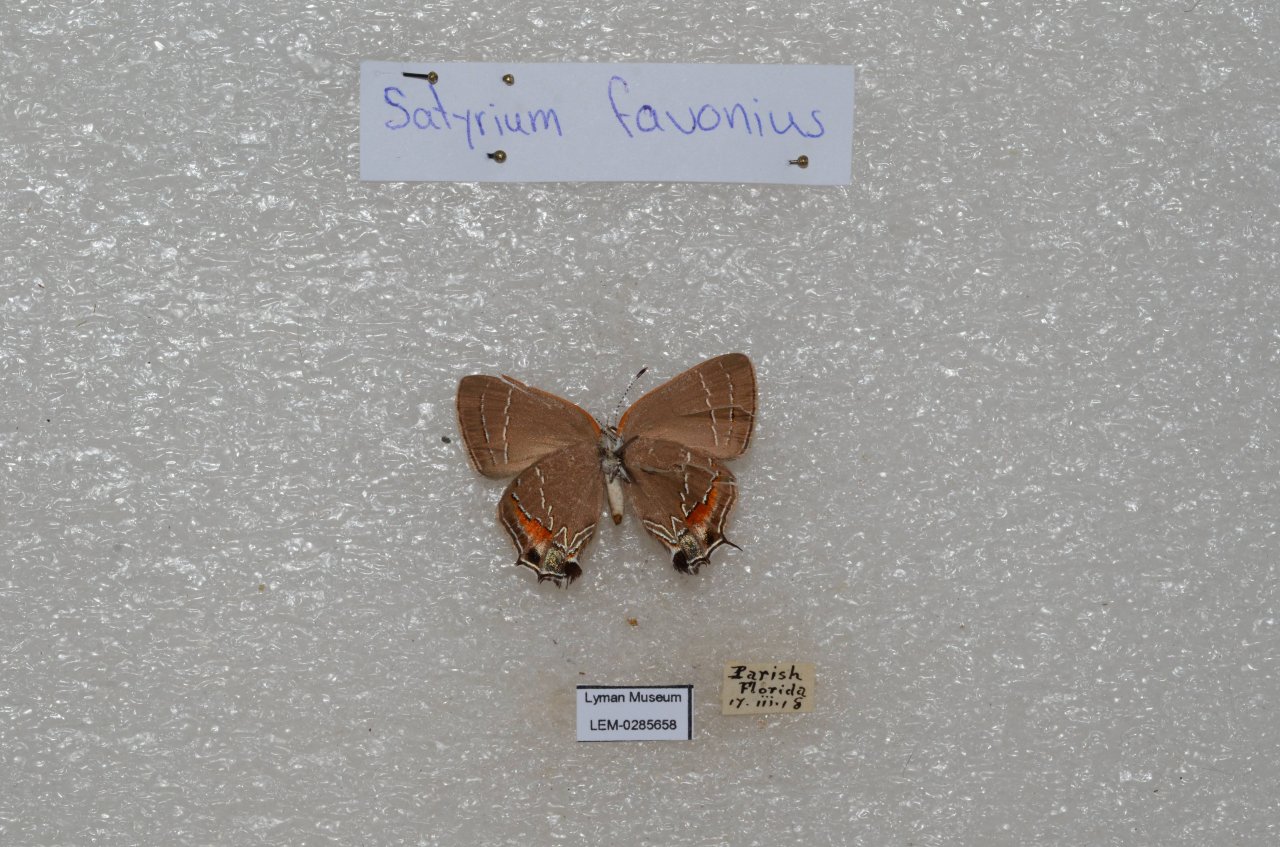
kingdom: Animalia
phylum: Arthropoda
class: Insecta
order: Lepidoptera
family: Lycaenidae
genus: Fixsenia
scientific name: Fixsenia favonius
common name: Oak Hairstreak
